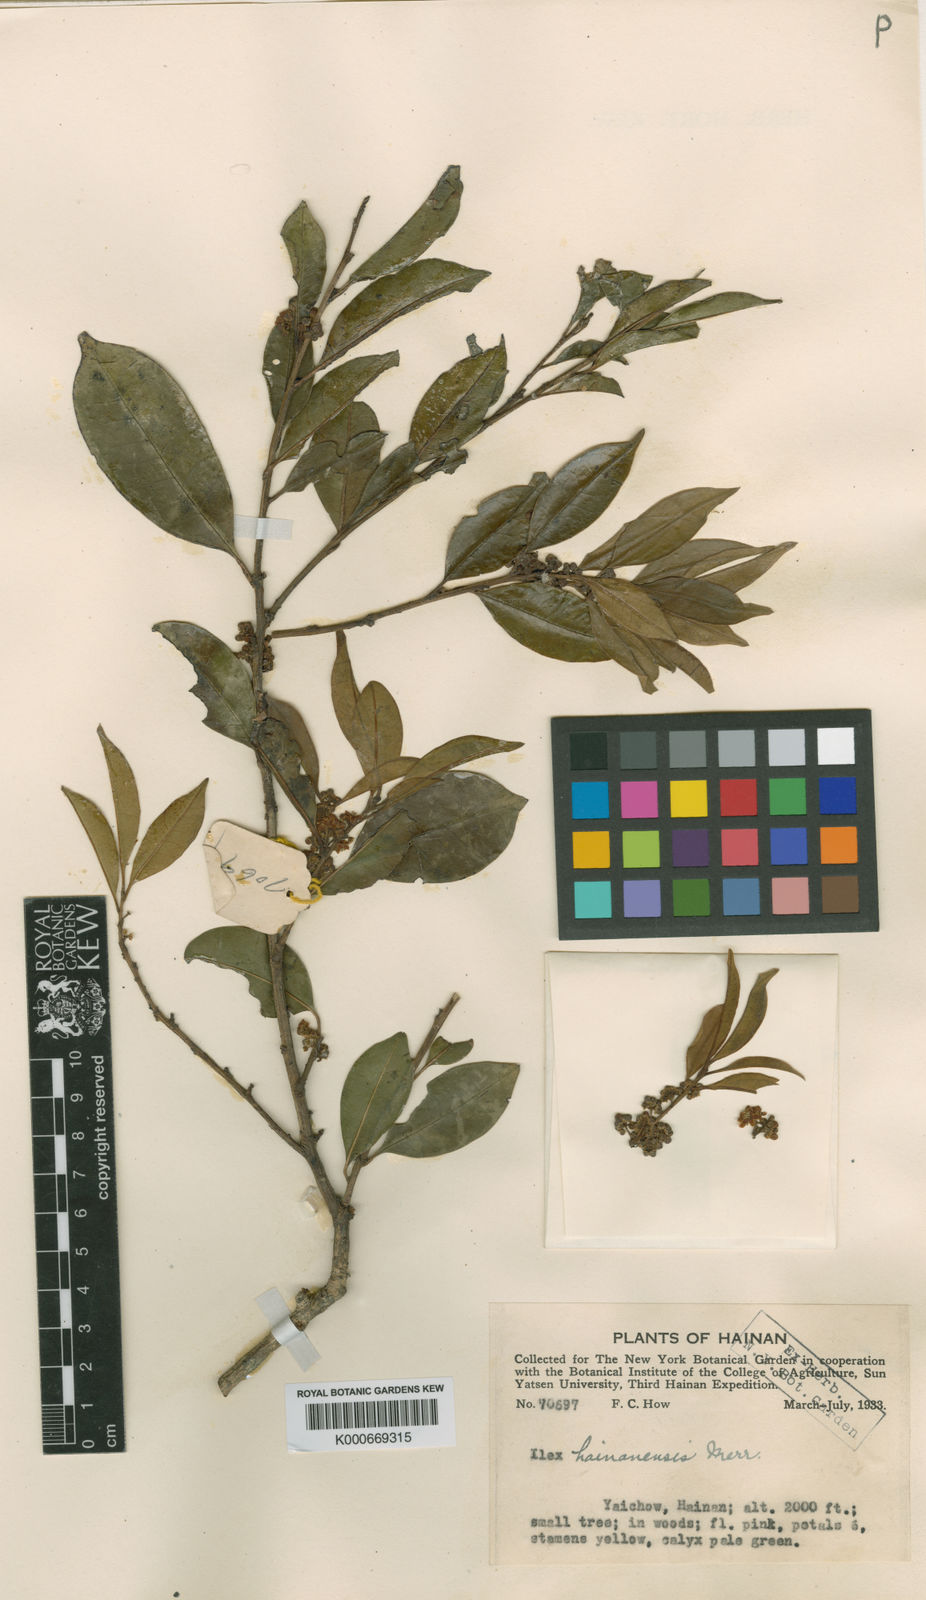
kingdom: Plantae
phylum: Tracheophyta
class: Magnoliopsida
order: Aquifoliales
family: Aquifoliaceae
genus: Ilex
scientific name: Ilex hainanensis
